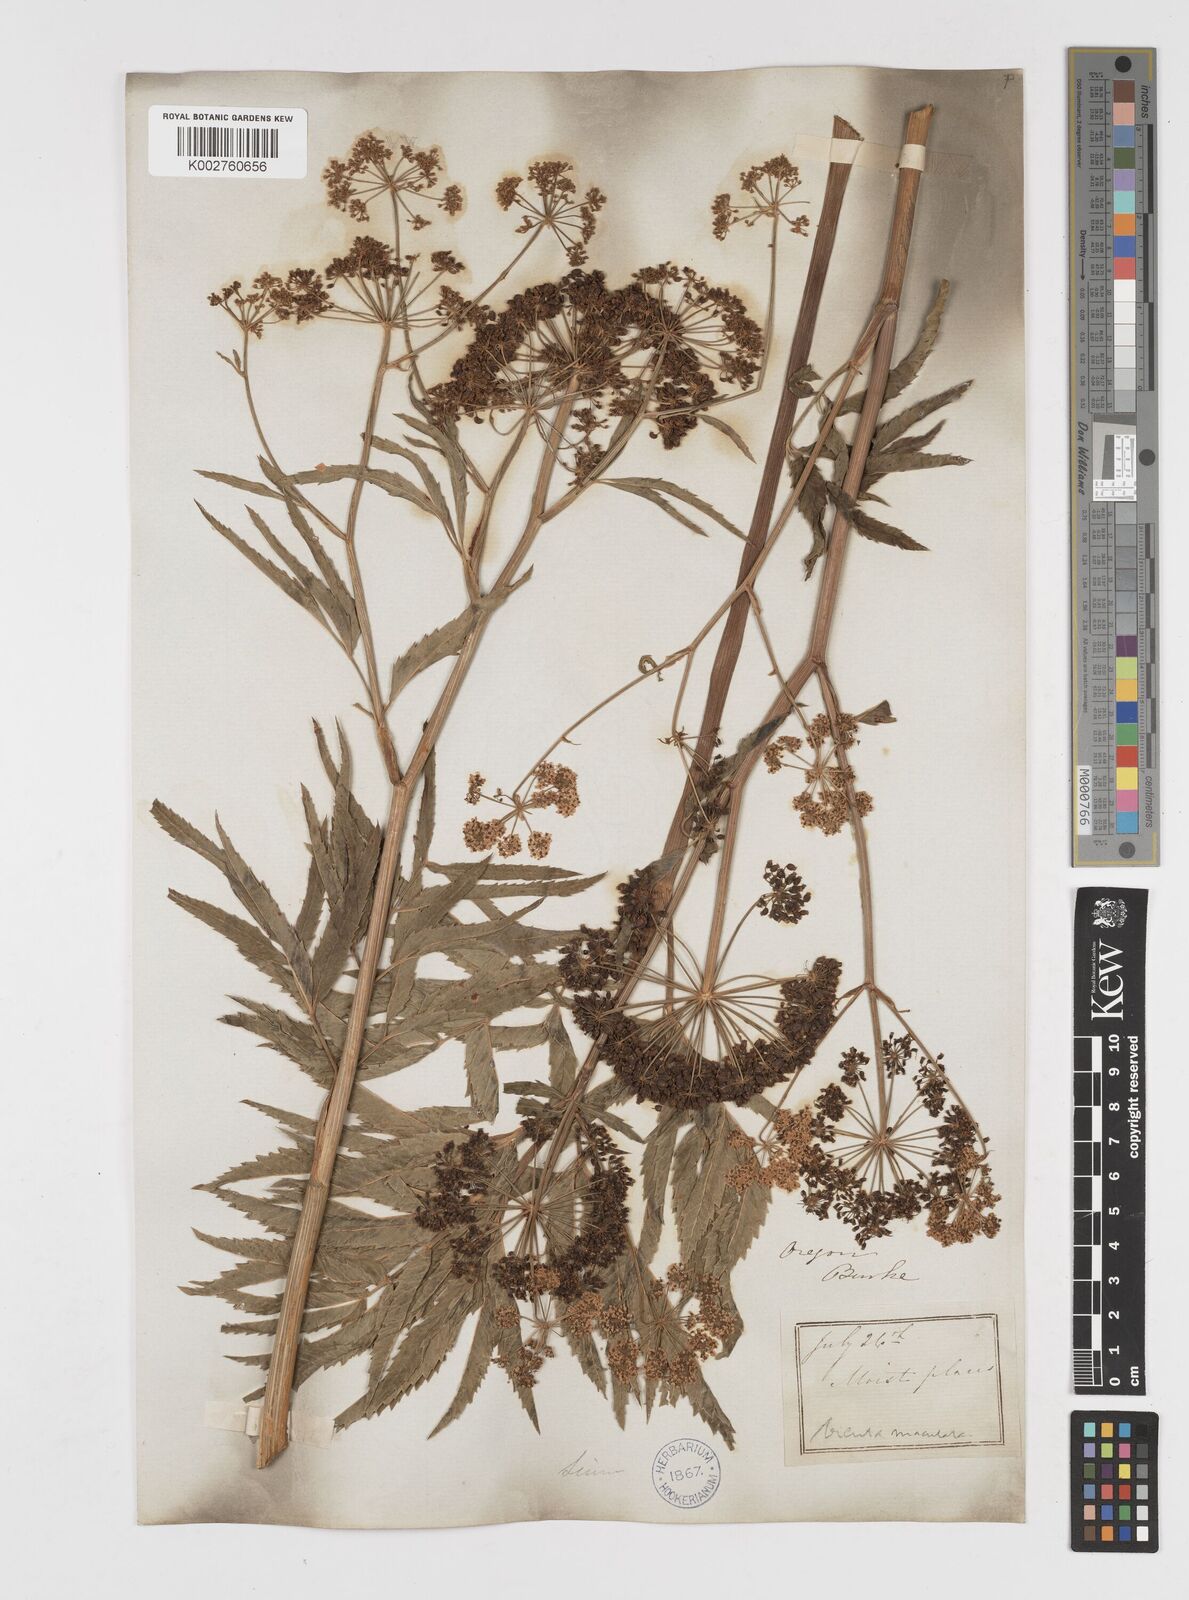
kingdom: Plantae
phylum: Tracheophyta
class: Magnoliopsida
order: Apiales
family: Apiaceae
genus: Cicuta
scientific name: Cicuta douglasii
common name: Western water-hemlock
